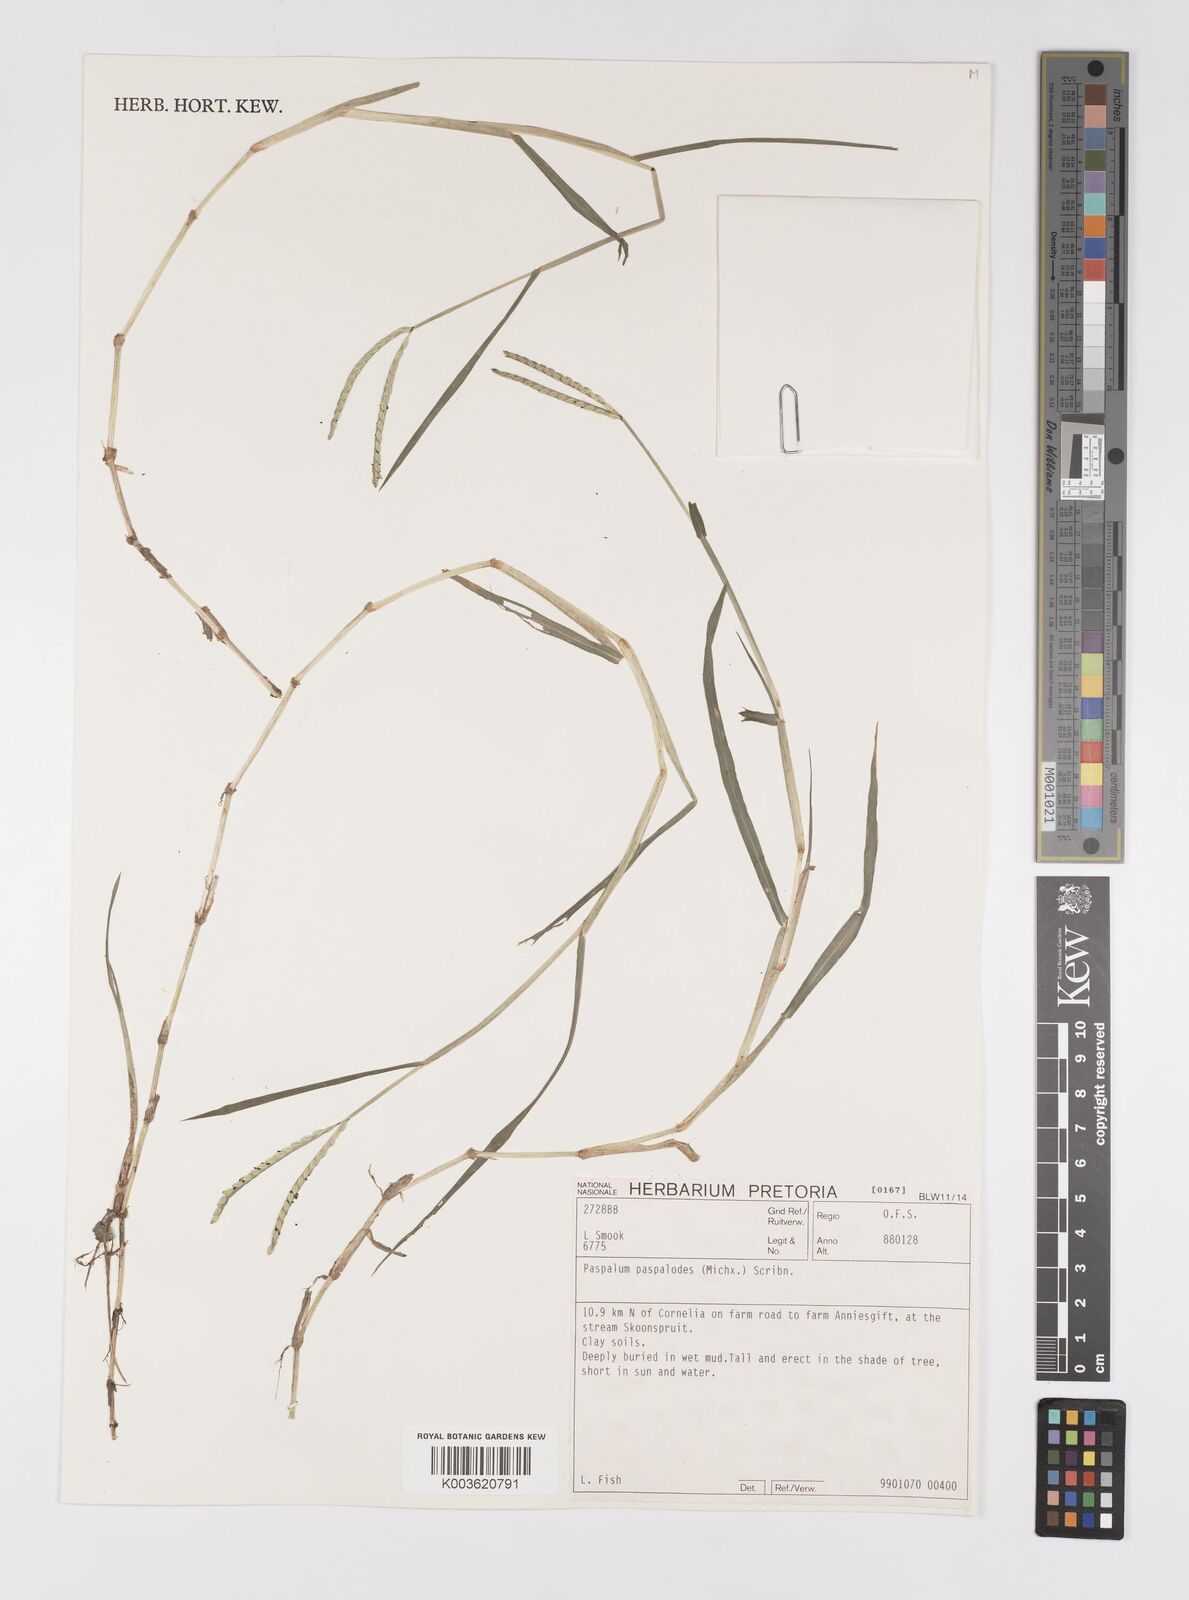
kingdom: Plantae
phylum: Tracheophyta
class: Liliopsida
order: Poales
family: Poaceae
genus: Paspalum
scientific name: Paspalum distichum
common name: Knotgrass
